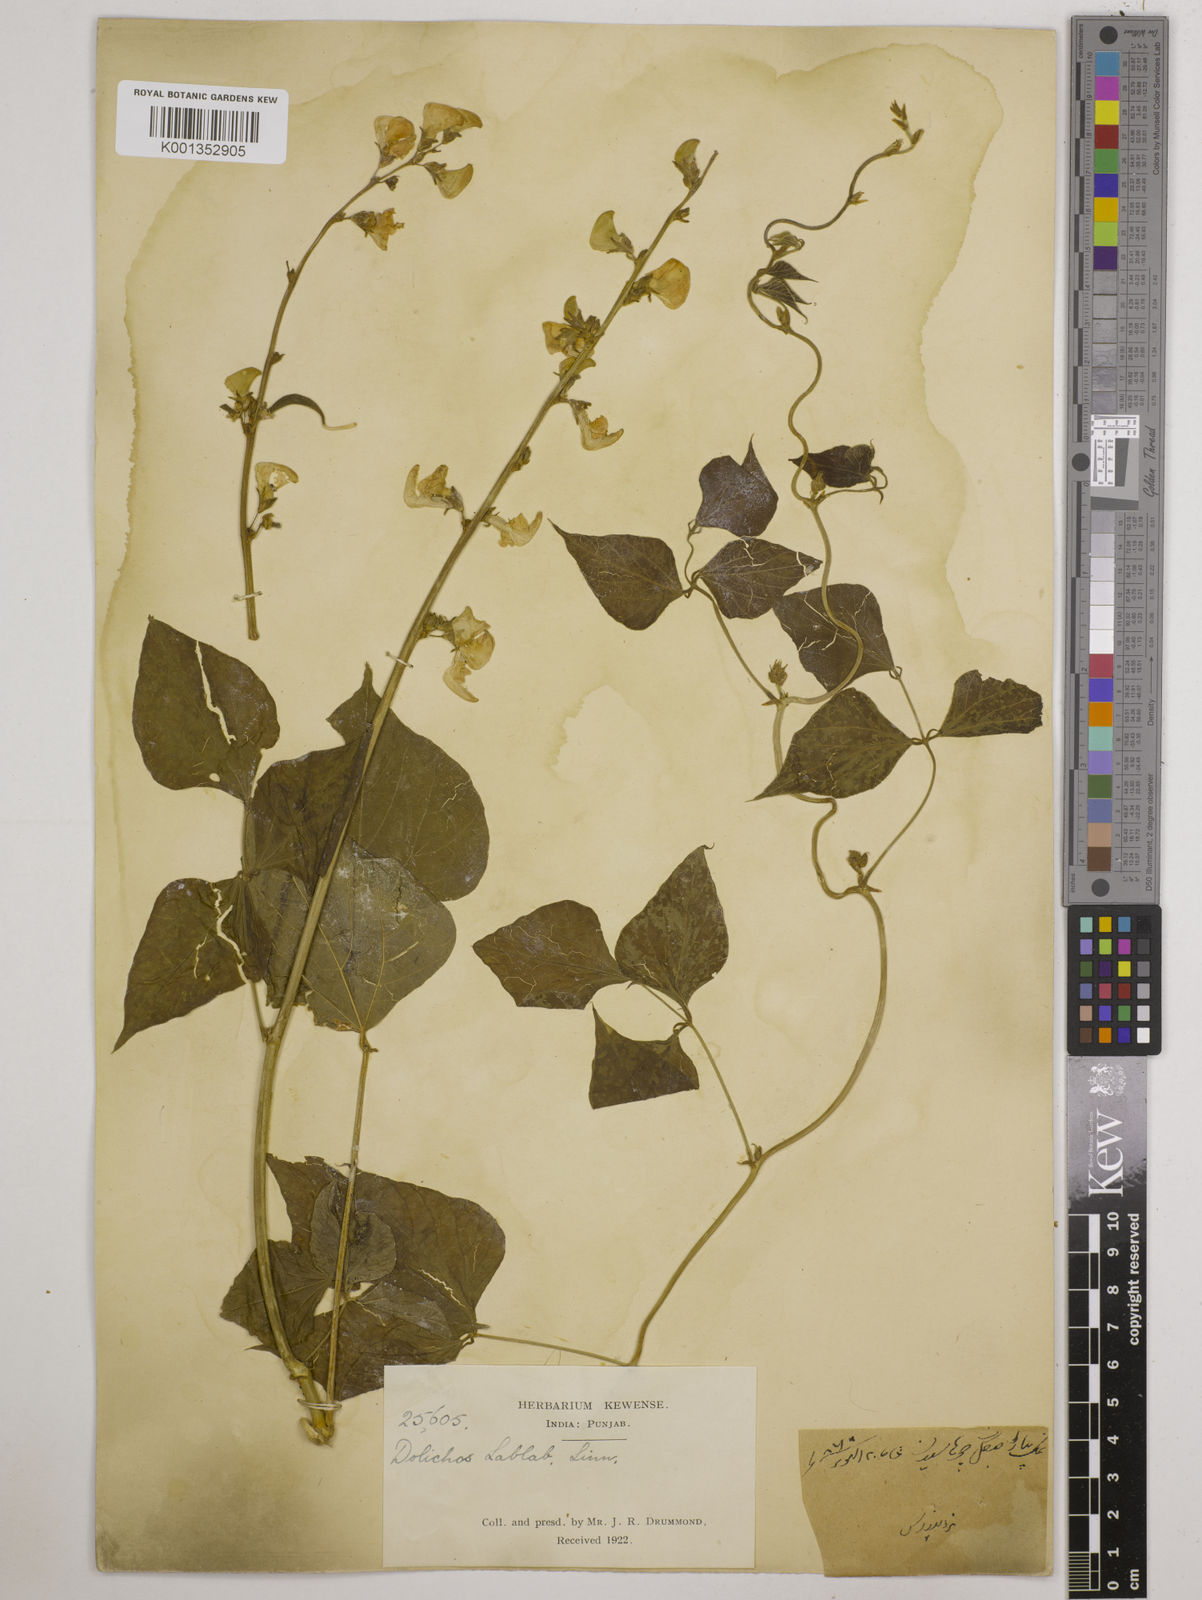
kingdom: Plantae
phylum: Tracheophyta
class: Magnoliopsida
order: Fabales
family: Fabaceae
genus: Lablab
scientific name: Lablab purpureus
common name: Lablab-bean
